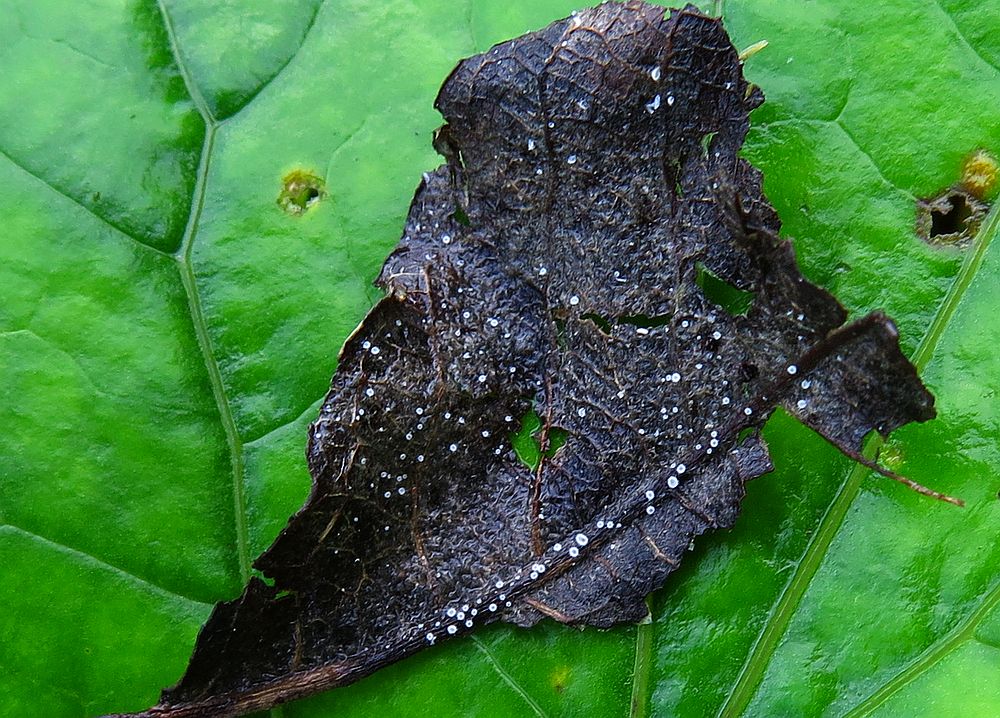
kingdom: Fungi
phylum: Basidiomycota
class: Agaricomycetes
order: Agaricales
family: Niaceae
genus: Lachnella
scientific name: Lachnella villosa
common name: hvid frynserede
